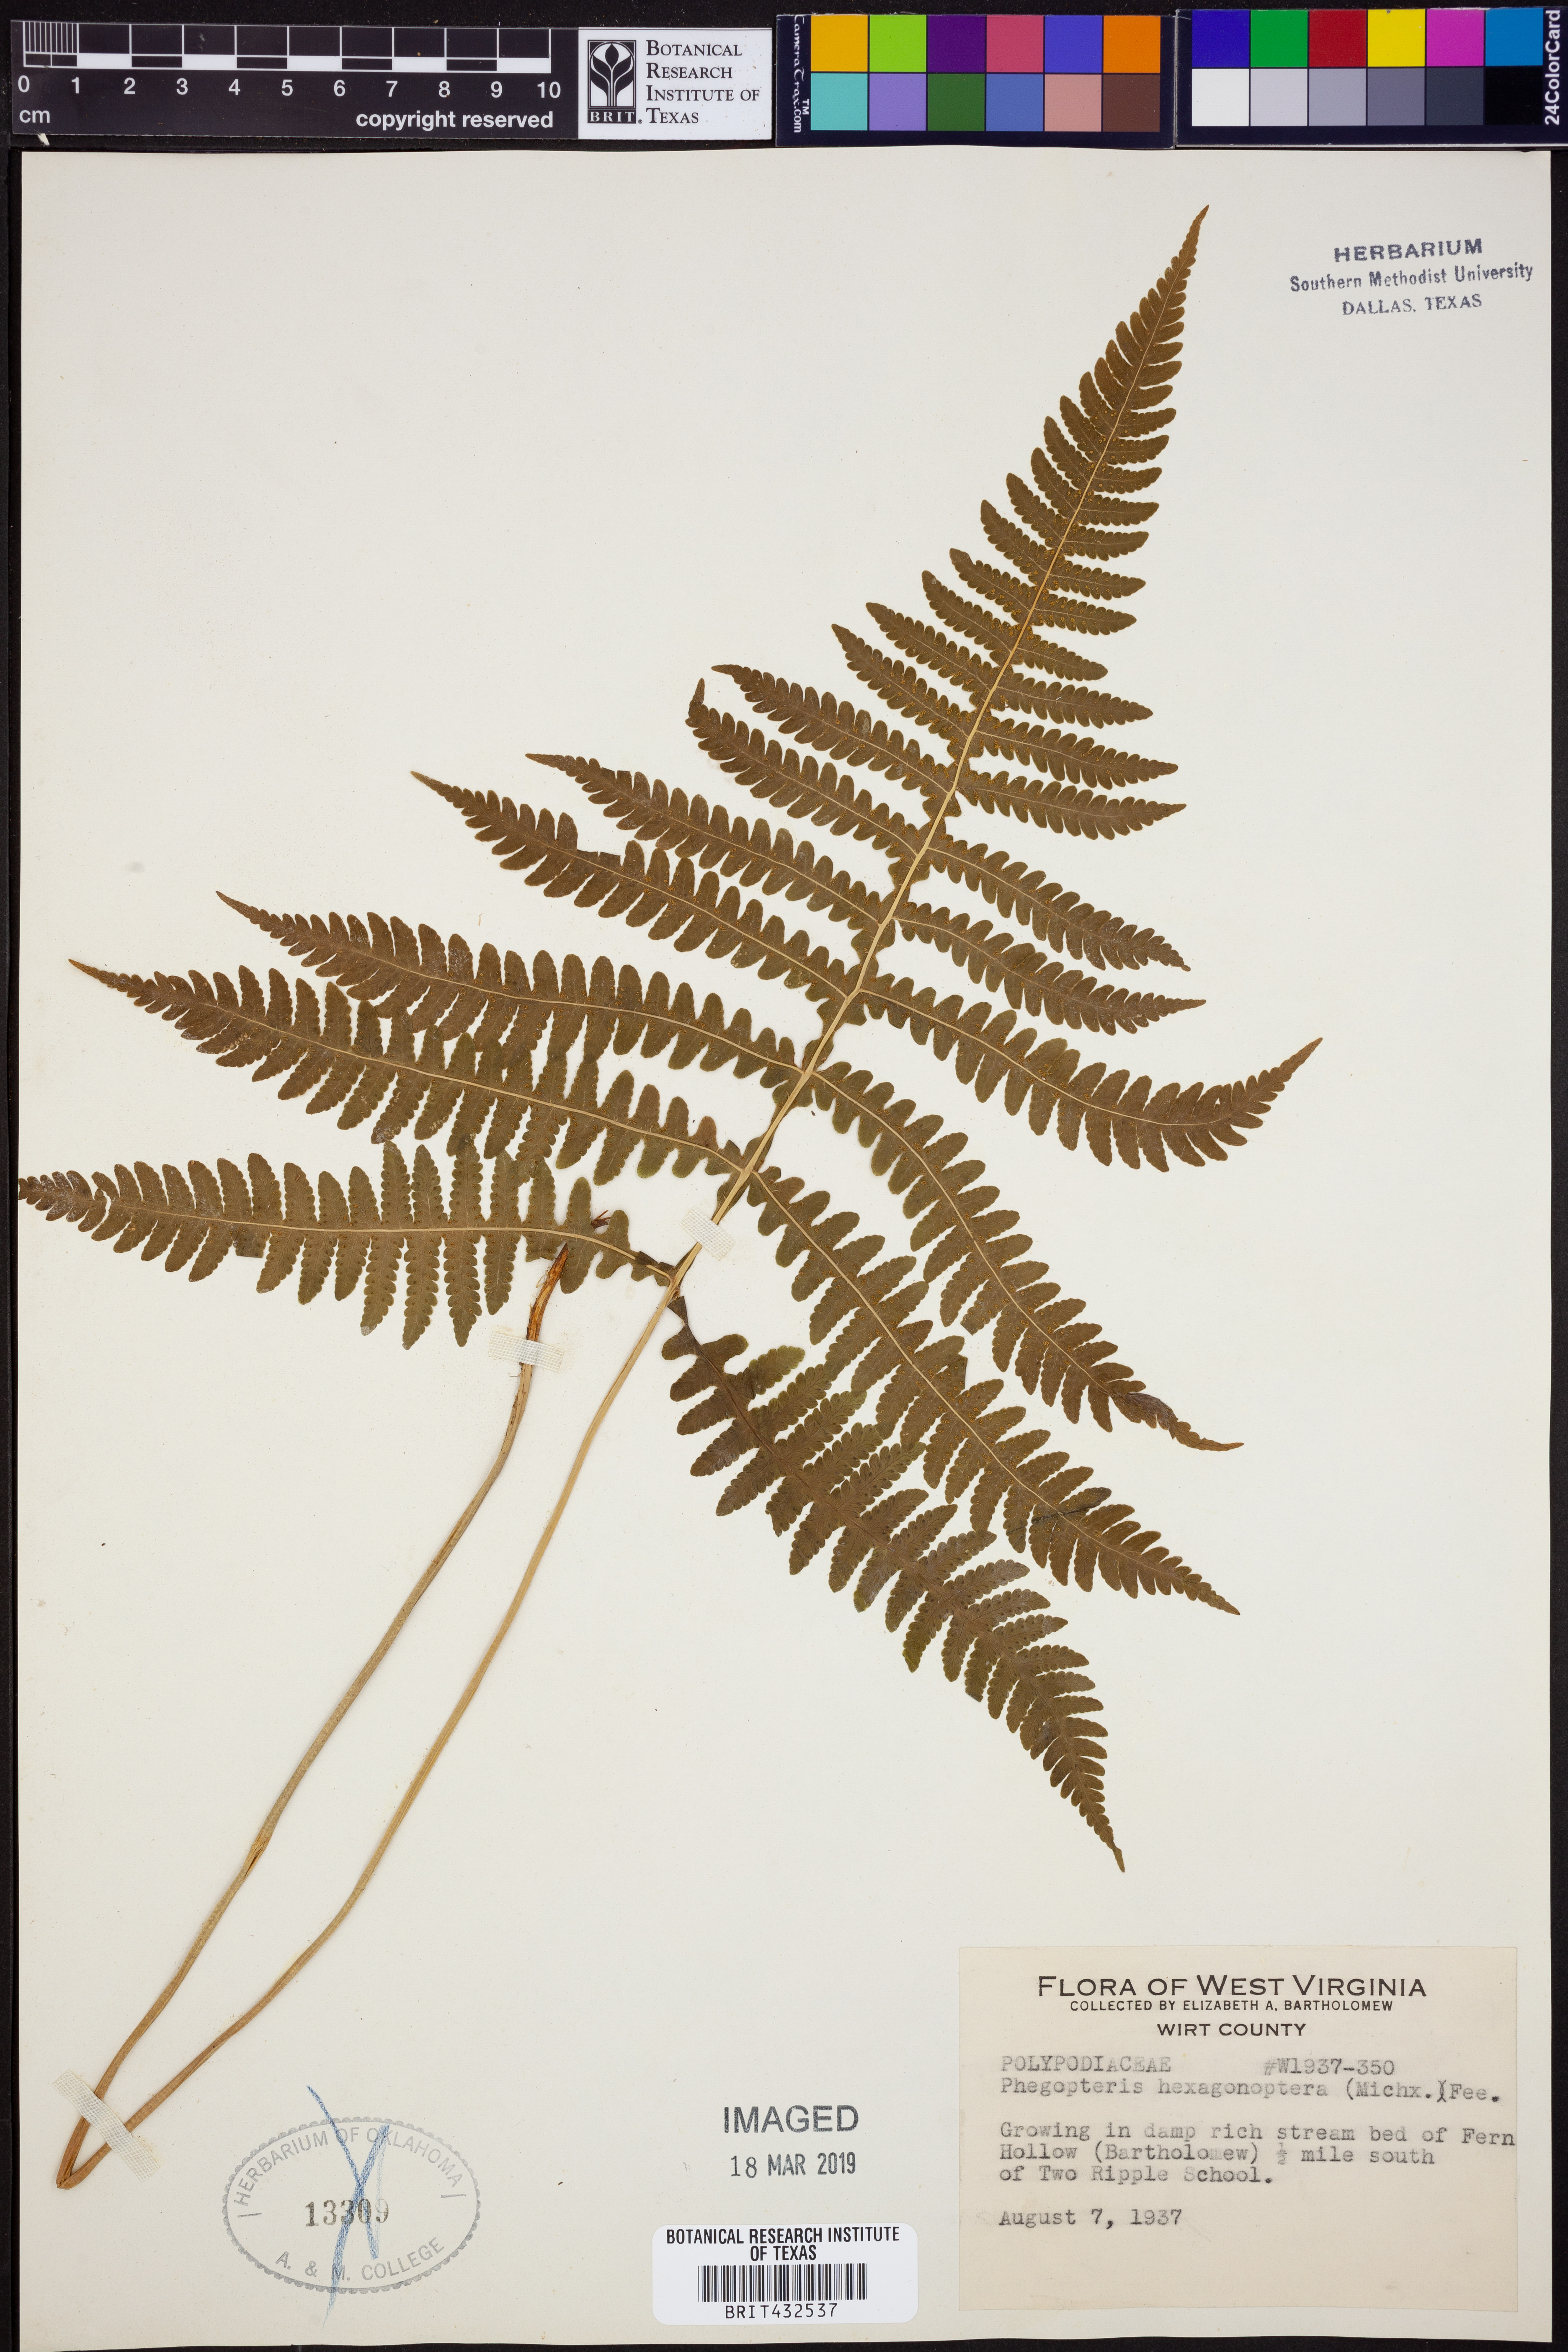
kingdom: Plantae
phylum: Tracheophyta
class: Polypodiopsida
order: Polypodiales
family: Thelypteridaceae
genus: Phegopteris
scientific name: Phegopteris hexagonoptera
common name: Broad beech fern
